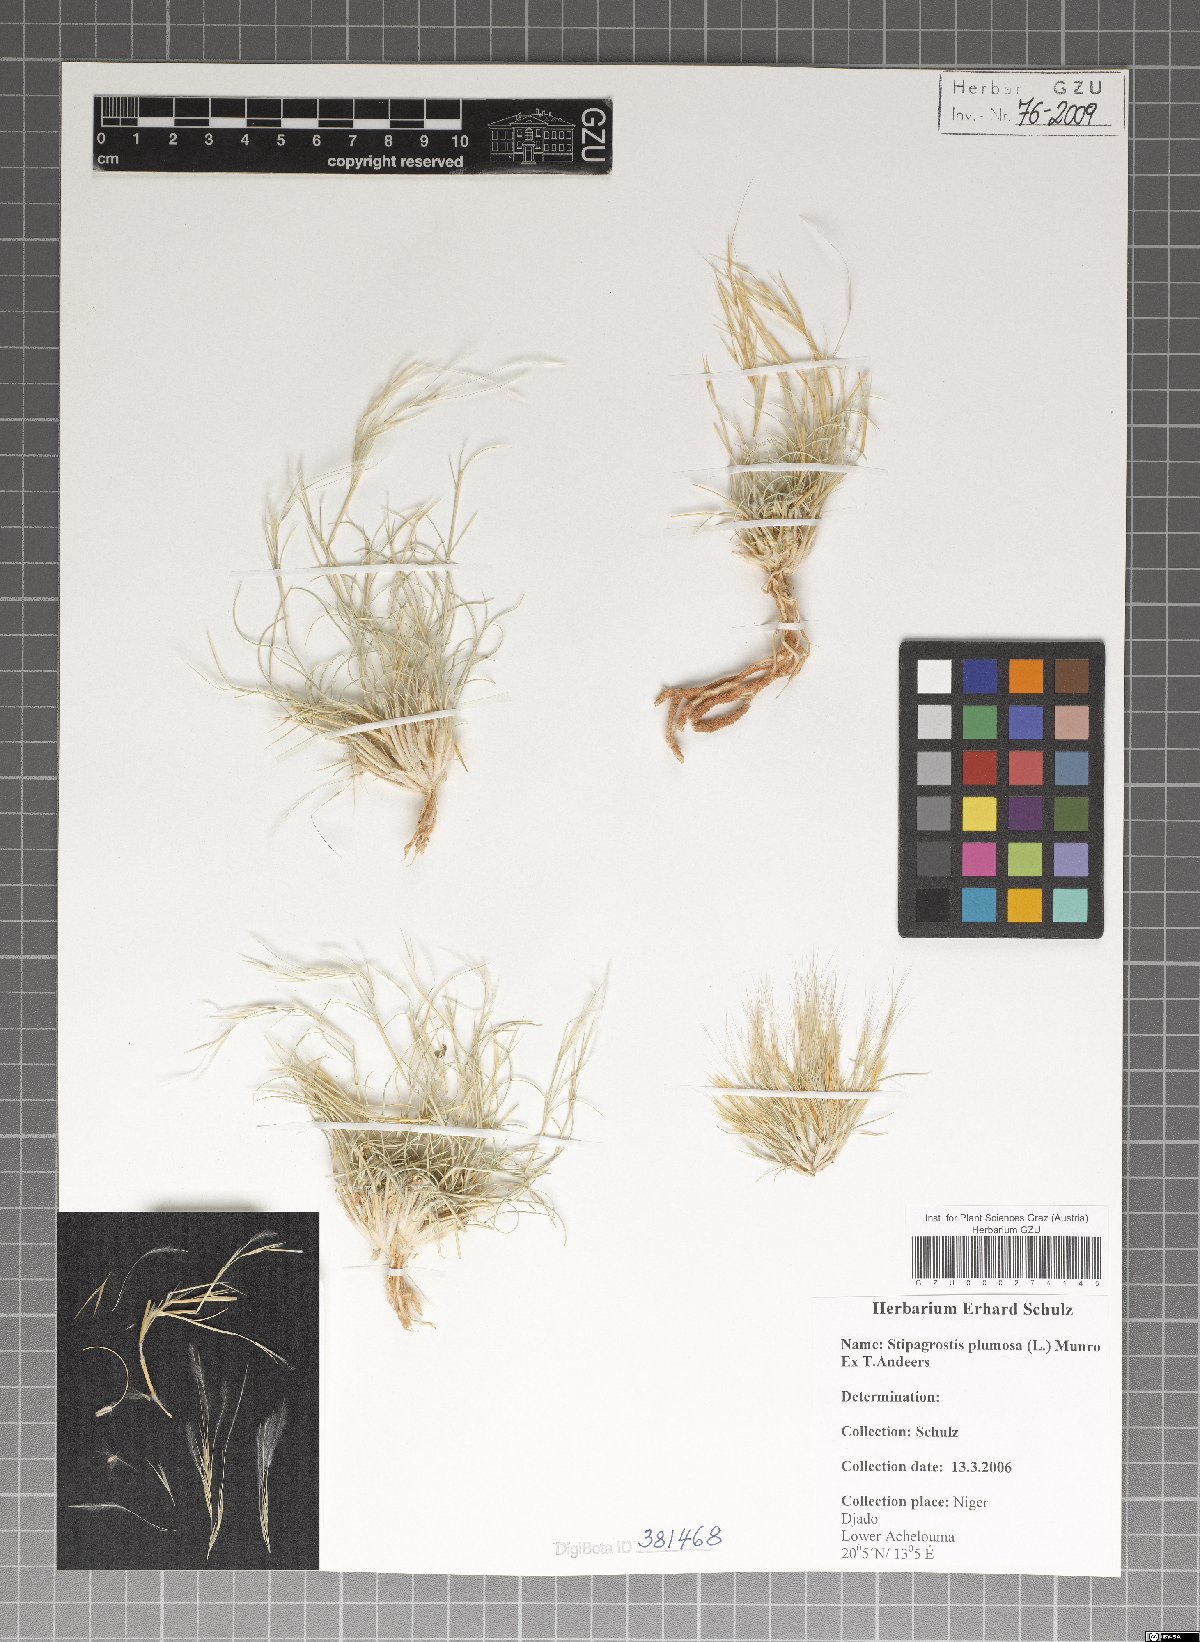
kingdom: Plantae
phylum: Tracheophyta
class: Liliopsida
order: Poales
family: Poaceae
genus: Stipagrostis
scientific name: Stipagrostis plumosa
